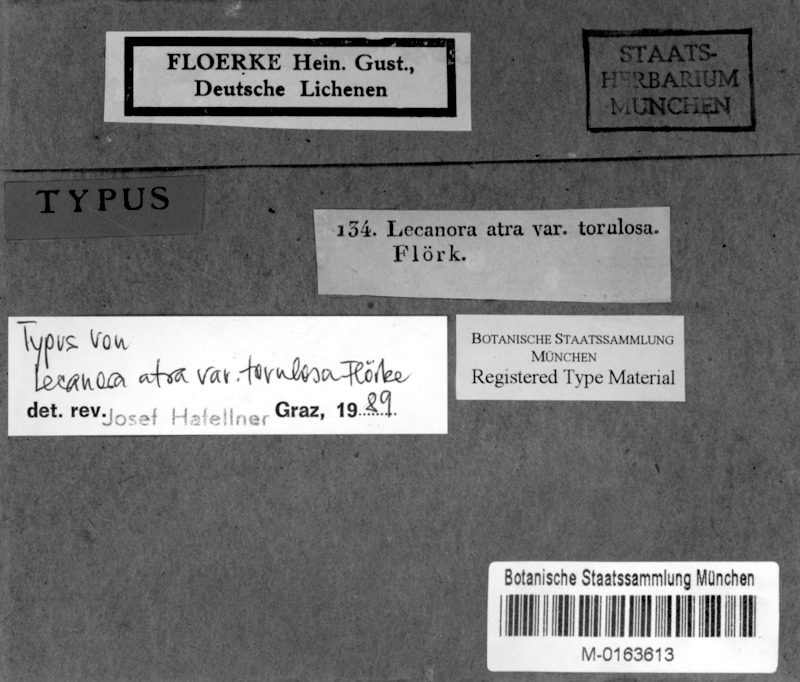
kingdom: Fungi
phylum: Ascomycota
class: Lecanoromycetes
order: Lecanorales
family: Tephromelataceae
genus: Tephromela
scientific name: Tephromela atra
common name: Black shields
